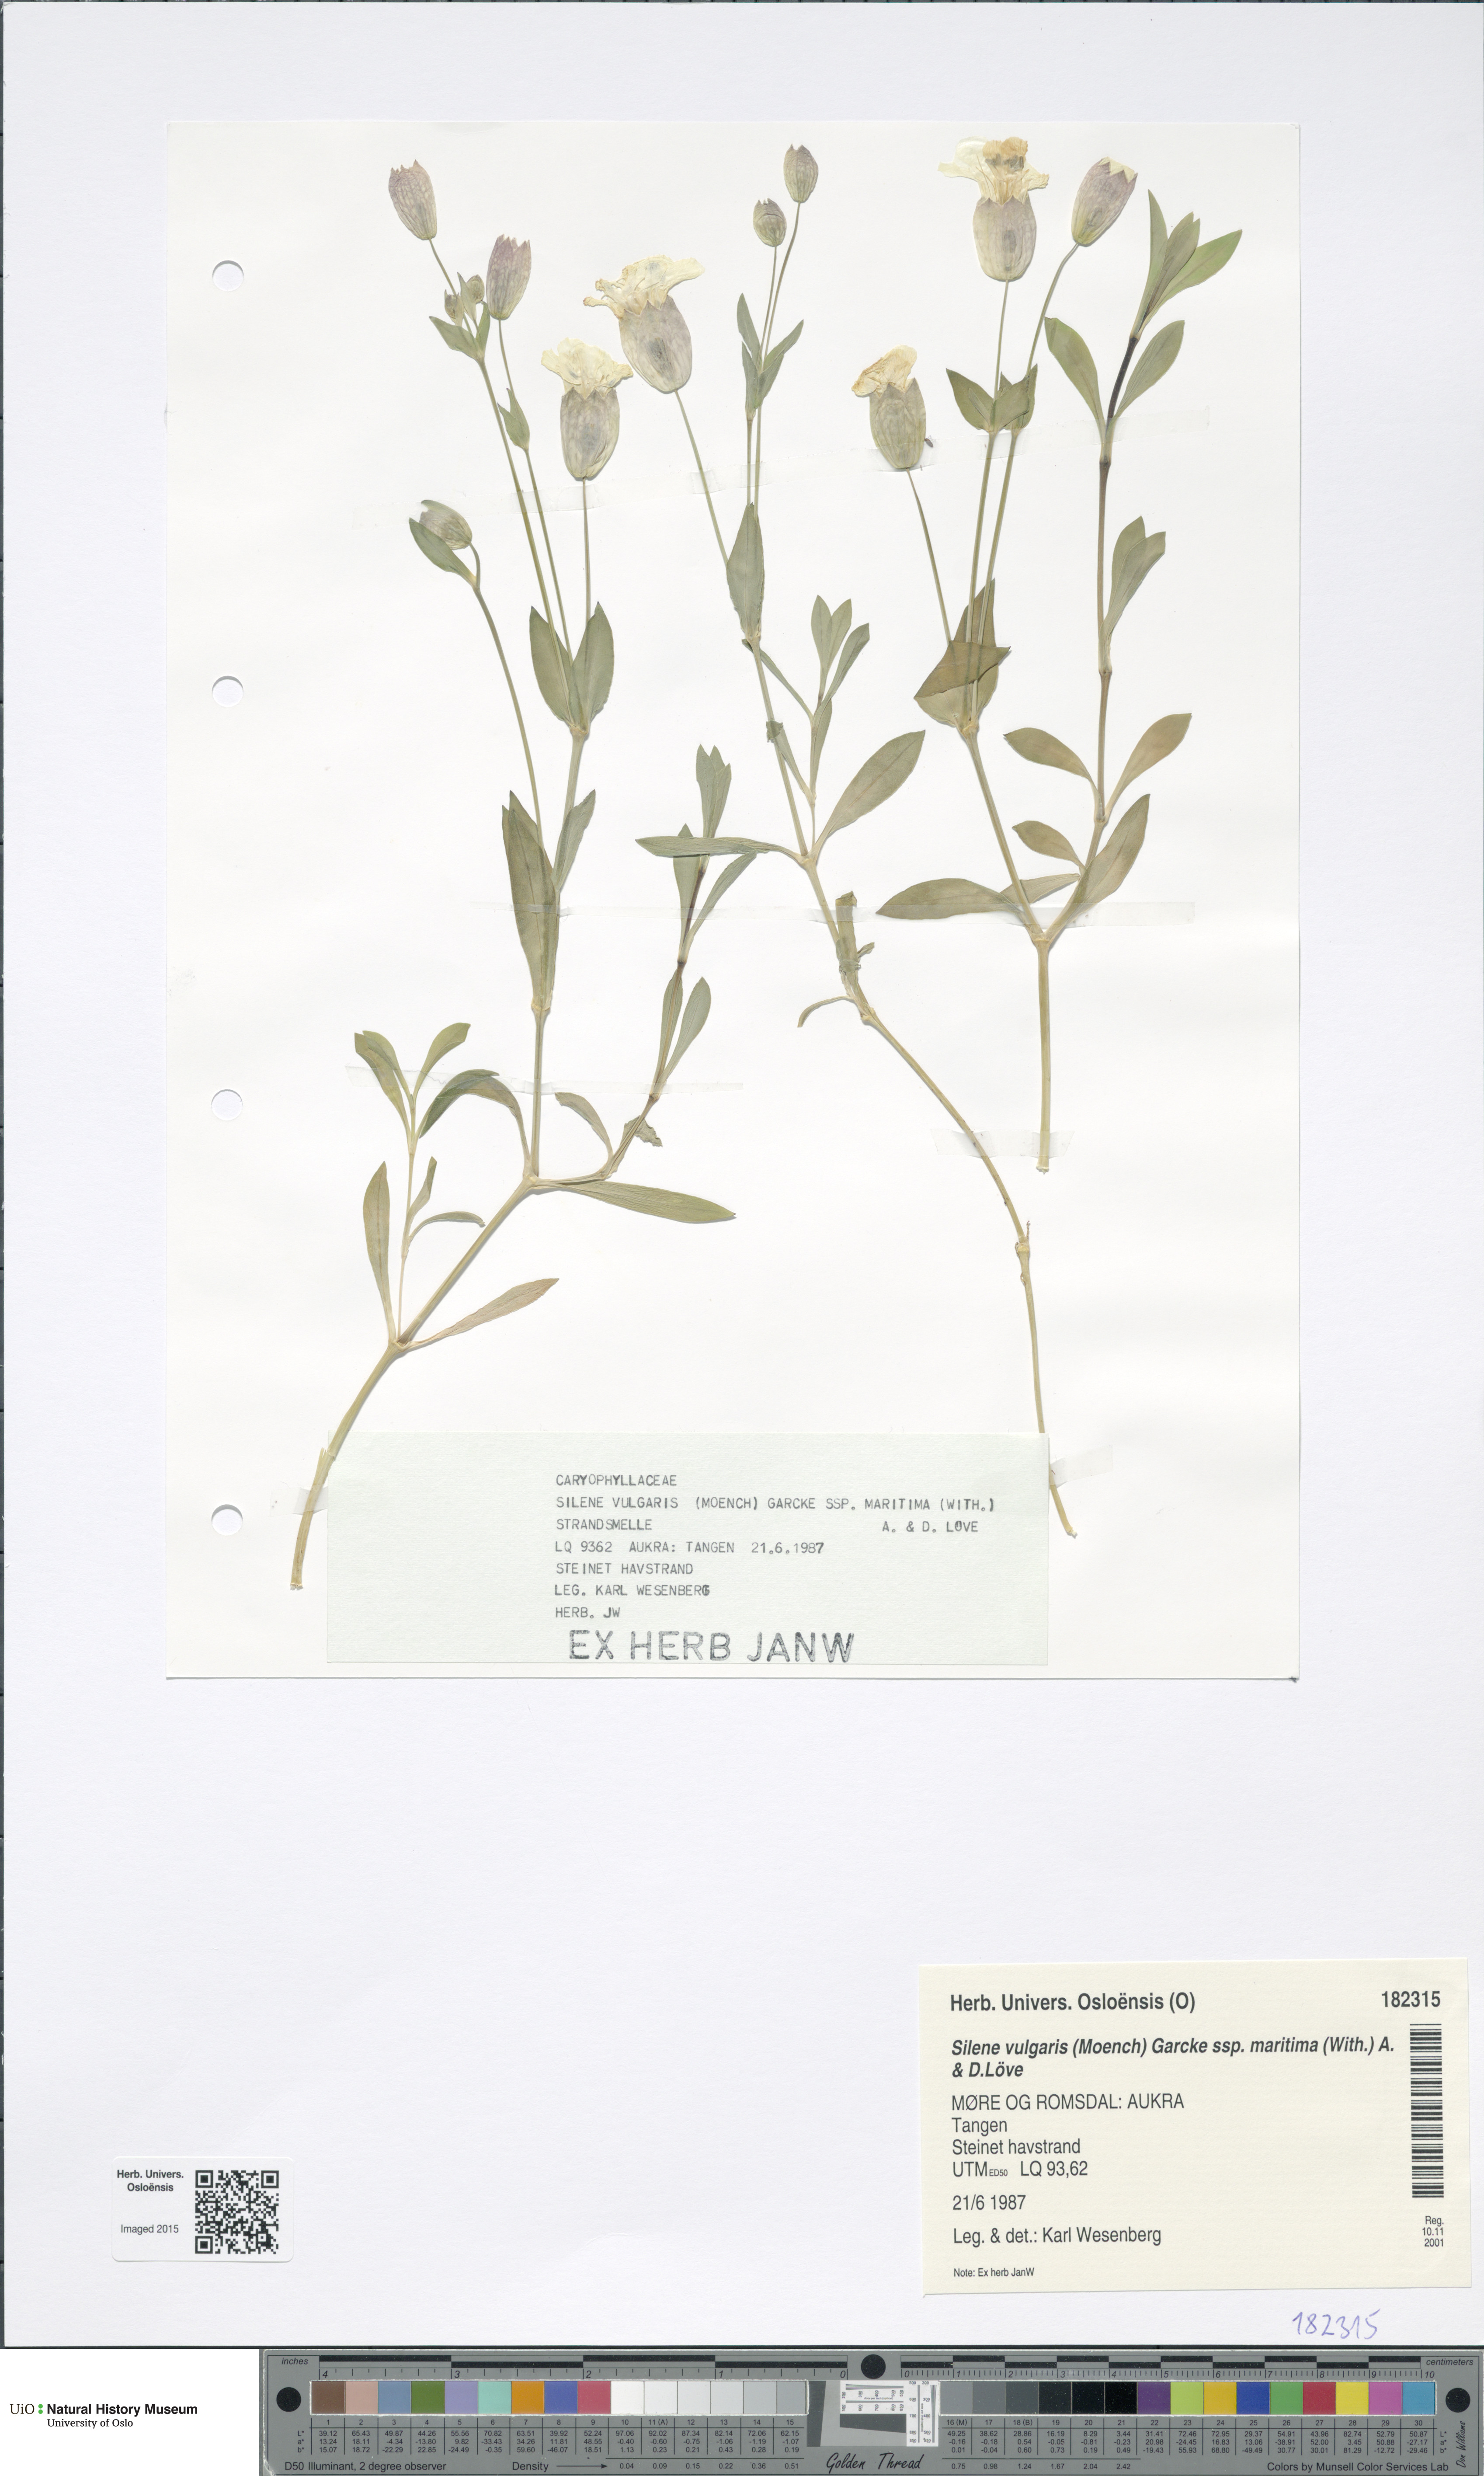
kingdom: Plantae
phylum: Tracheophyta
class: Magnoliopsida
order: Caryophyllales
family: Caryophyllaceae
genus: Silene
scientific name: Silene uniflora
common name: Sea campion
